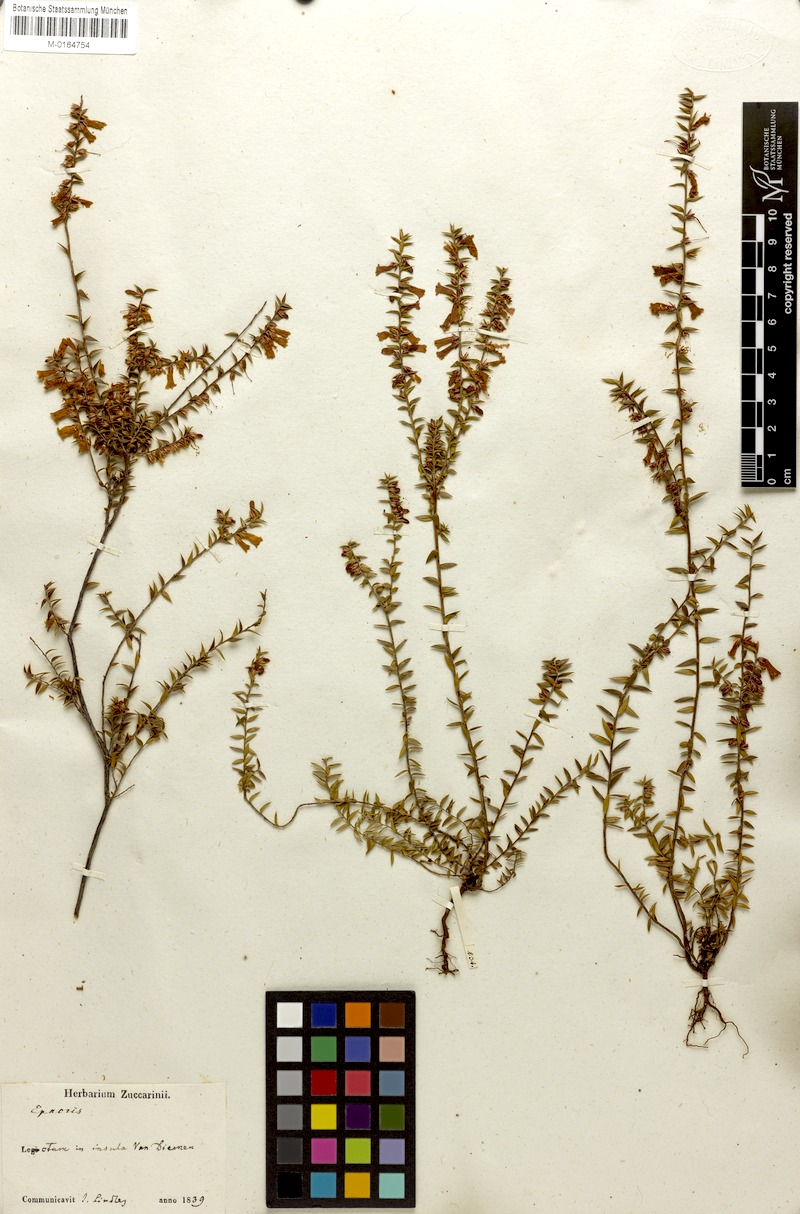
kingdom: Plantae
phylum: Tracheophyta
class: Magnoliopsida
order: Ericales
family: Ericaceae
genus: Epacris
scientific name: Epacris impressa
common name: Common-heath
